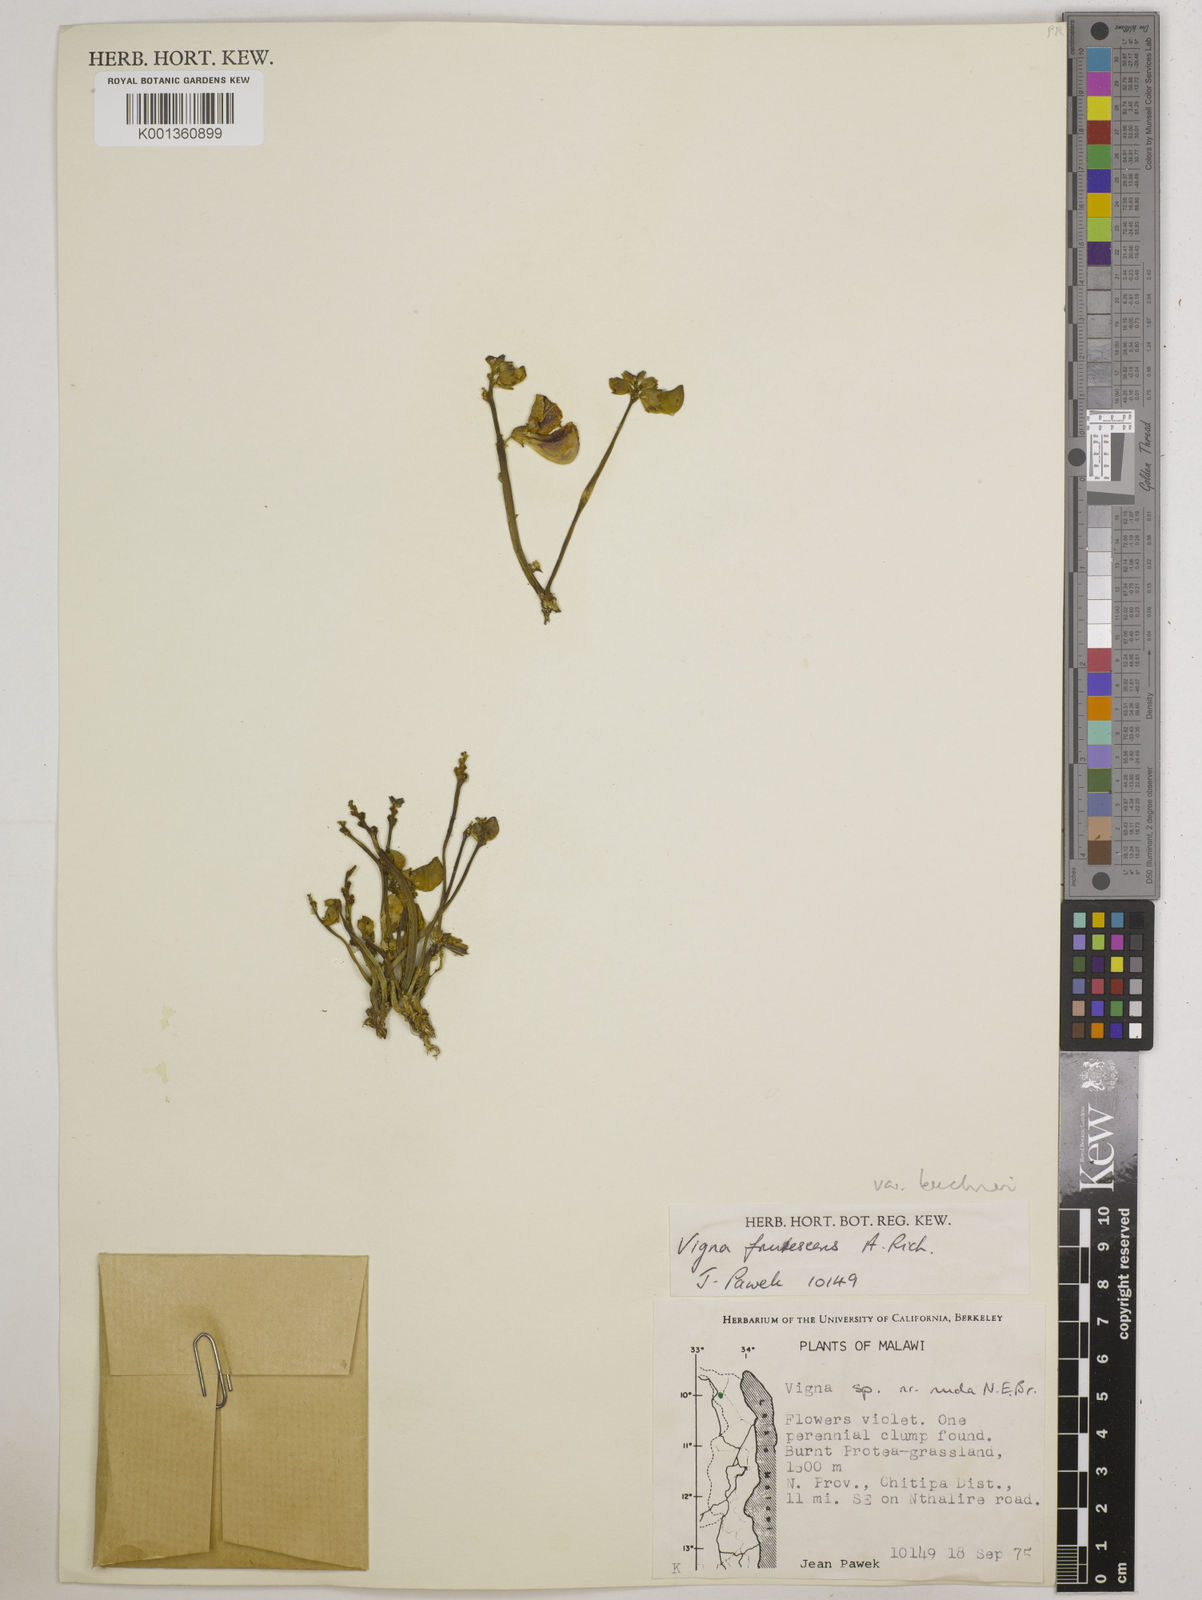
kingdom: Plantae
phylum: Tracheophyta
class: Magnoliopsida
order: Fabales
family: Fabaceae
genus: Vigna
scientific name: Vigna
